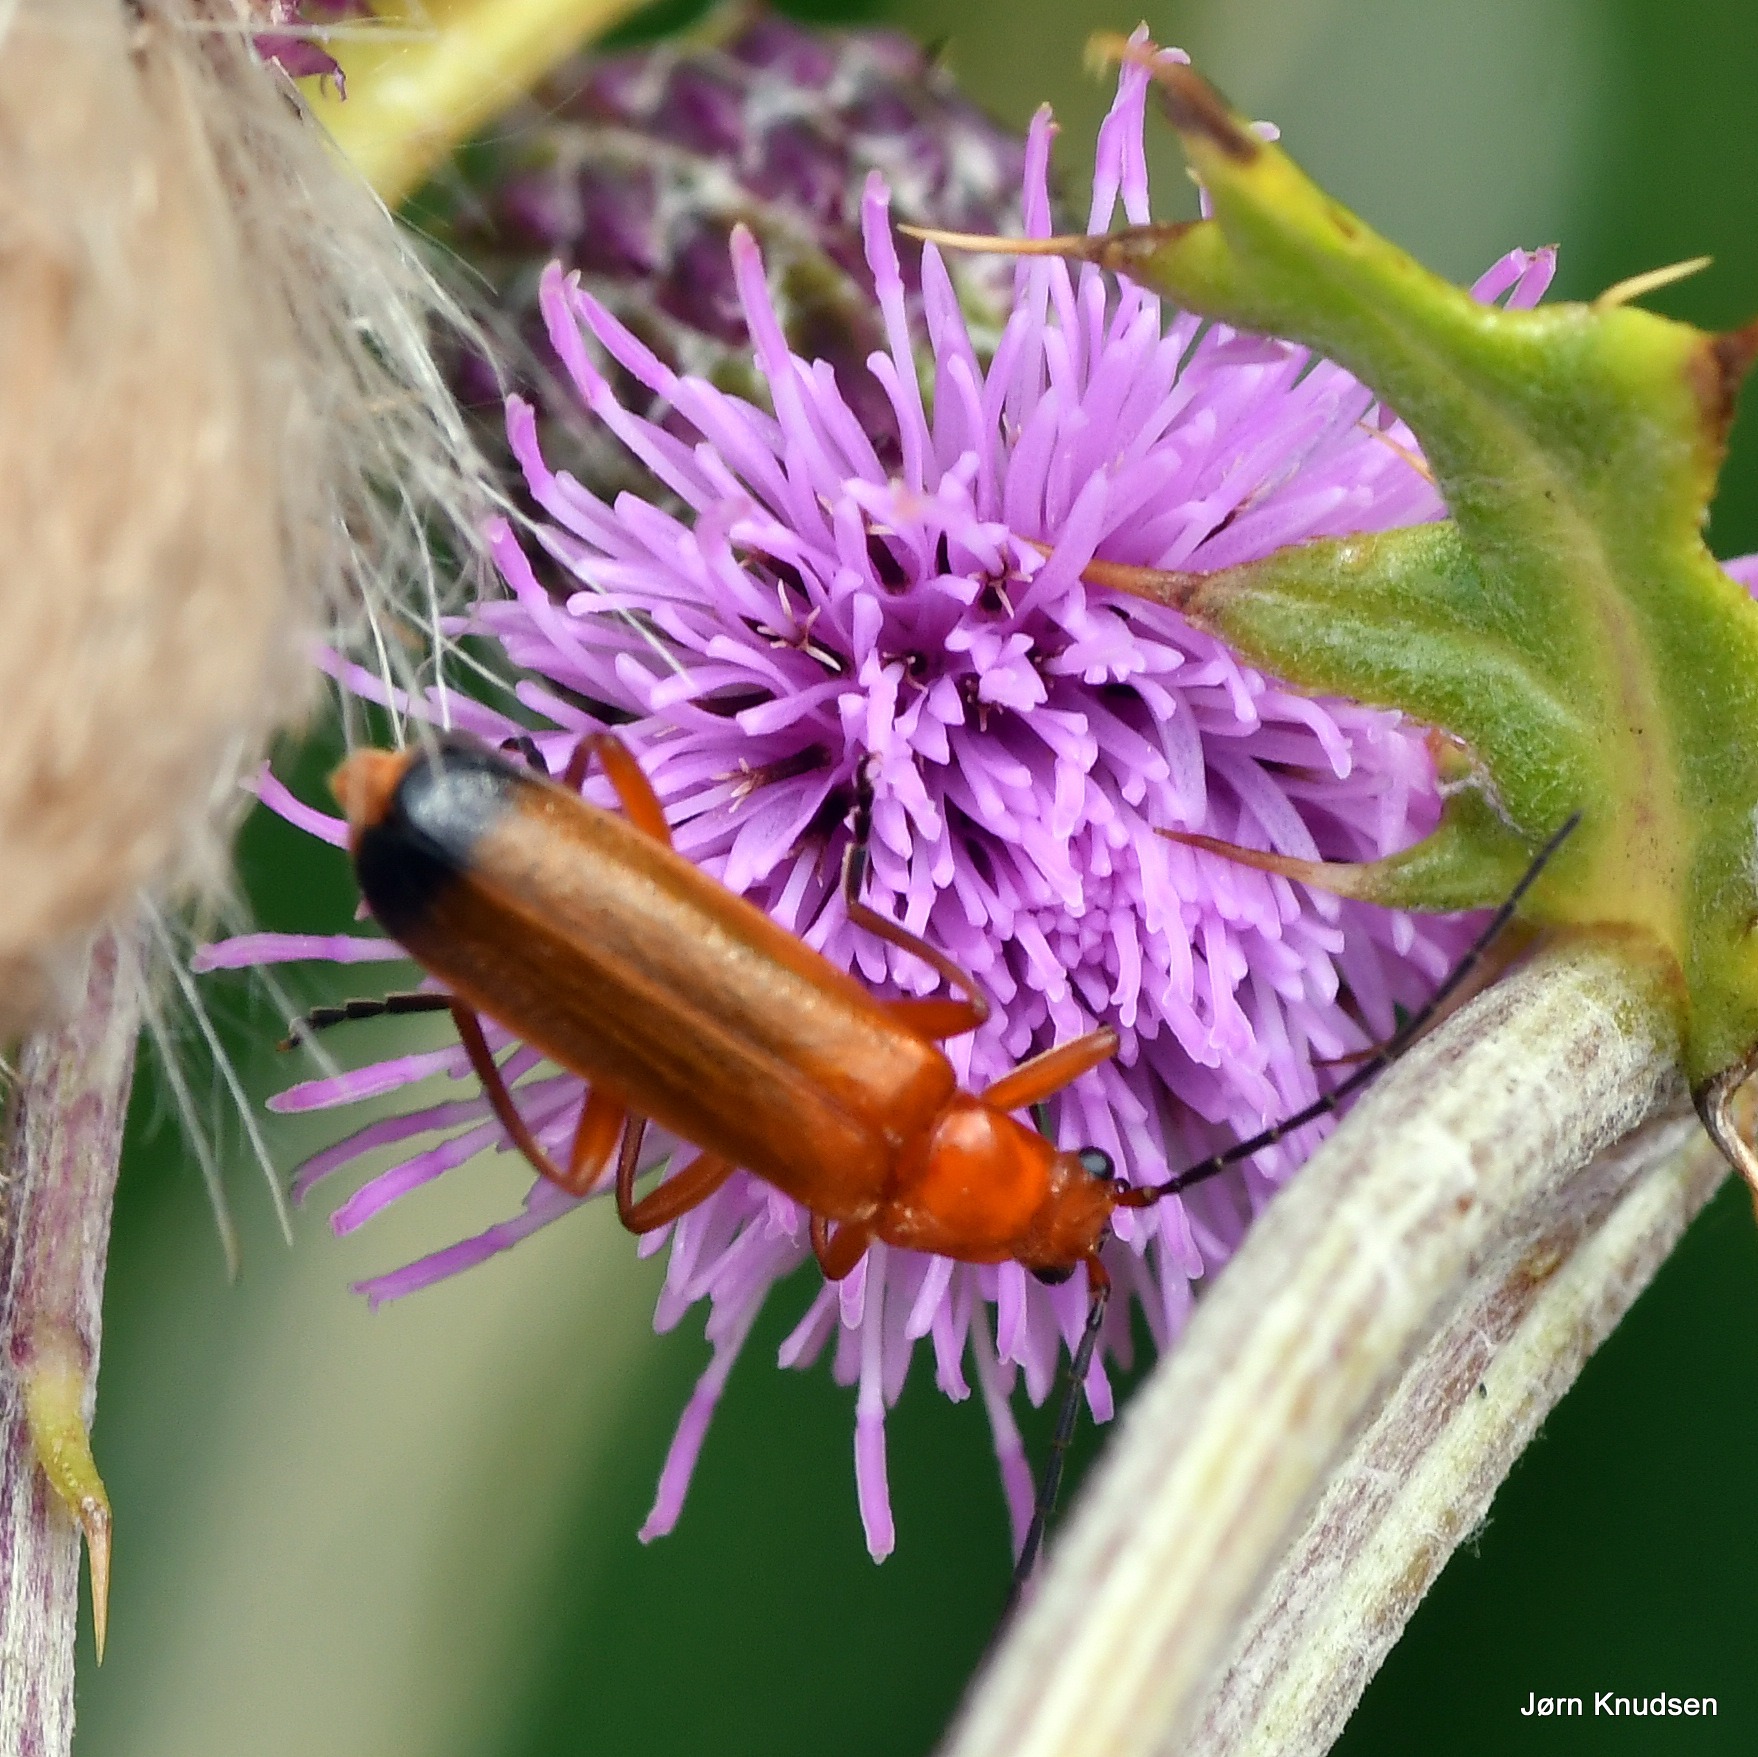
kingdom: Animalia
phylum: Arthropoda
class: Insecta
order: Coleoptera
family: Cantharidae
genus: Rhagonycha
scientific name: Rhagonycha fulva
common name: Præstebille
